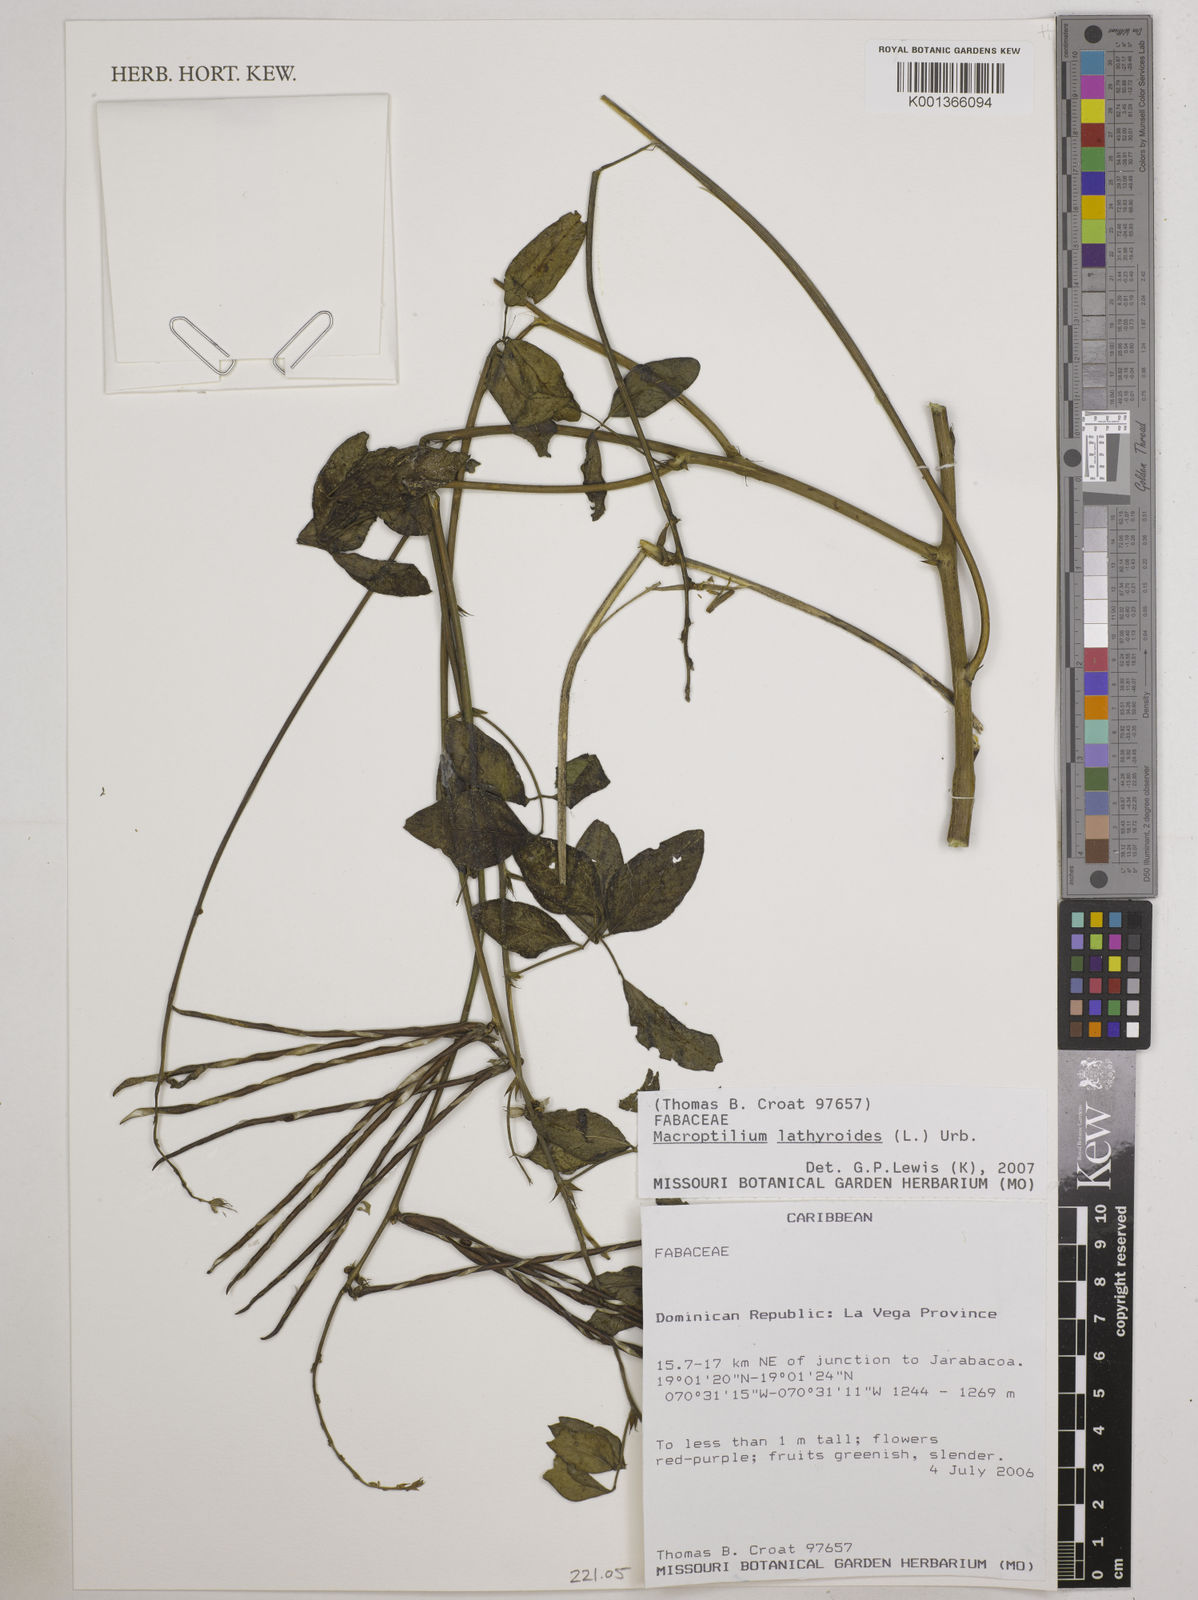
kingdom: Plantae
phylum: Tracheophyta
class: Magnoliopsida
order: Fabales
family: Fabaceae
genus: Macroptilium
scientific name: Macroptilium lathyroides
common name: Wild bushbean
